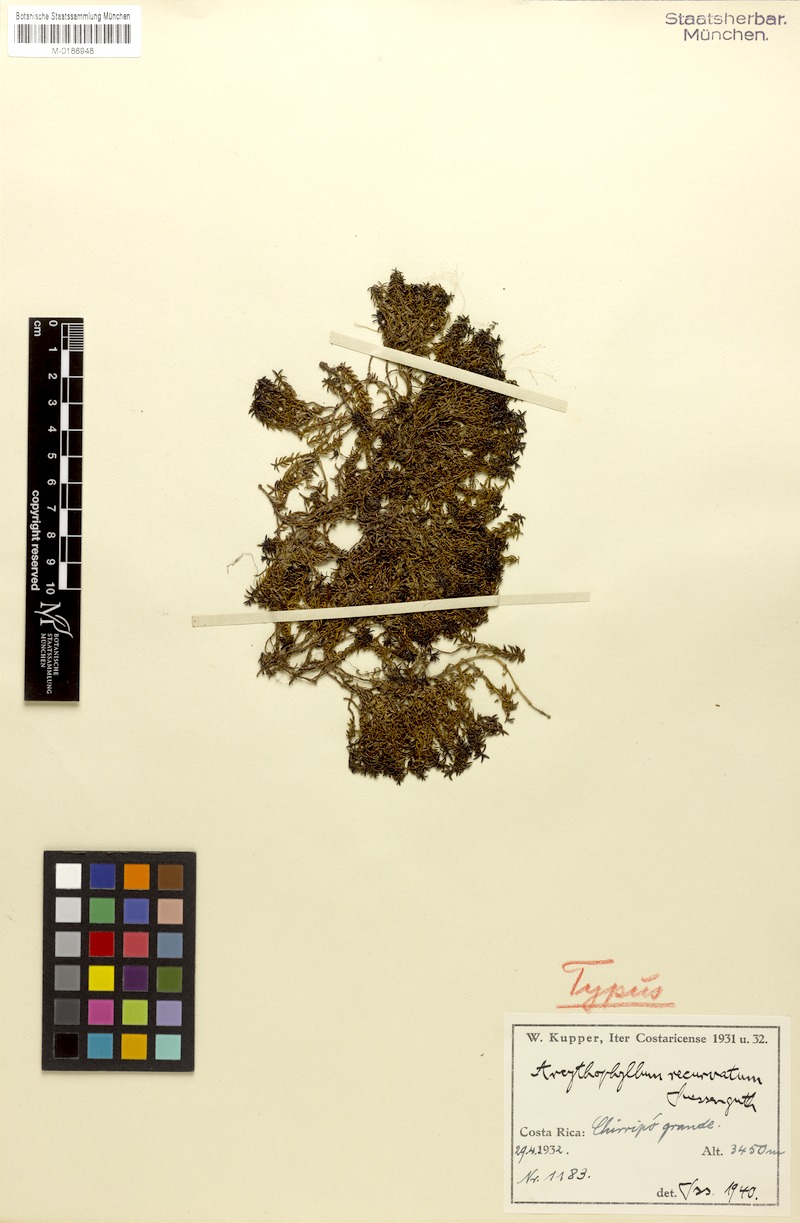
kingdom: Plantae
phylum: Tracheophyta
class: Magnoliopsida
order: Gentianales
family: Rubiaceae
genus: Arcytophyllum
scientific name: Arcytophyllum muticum
